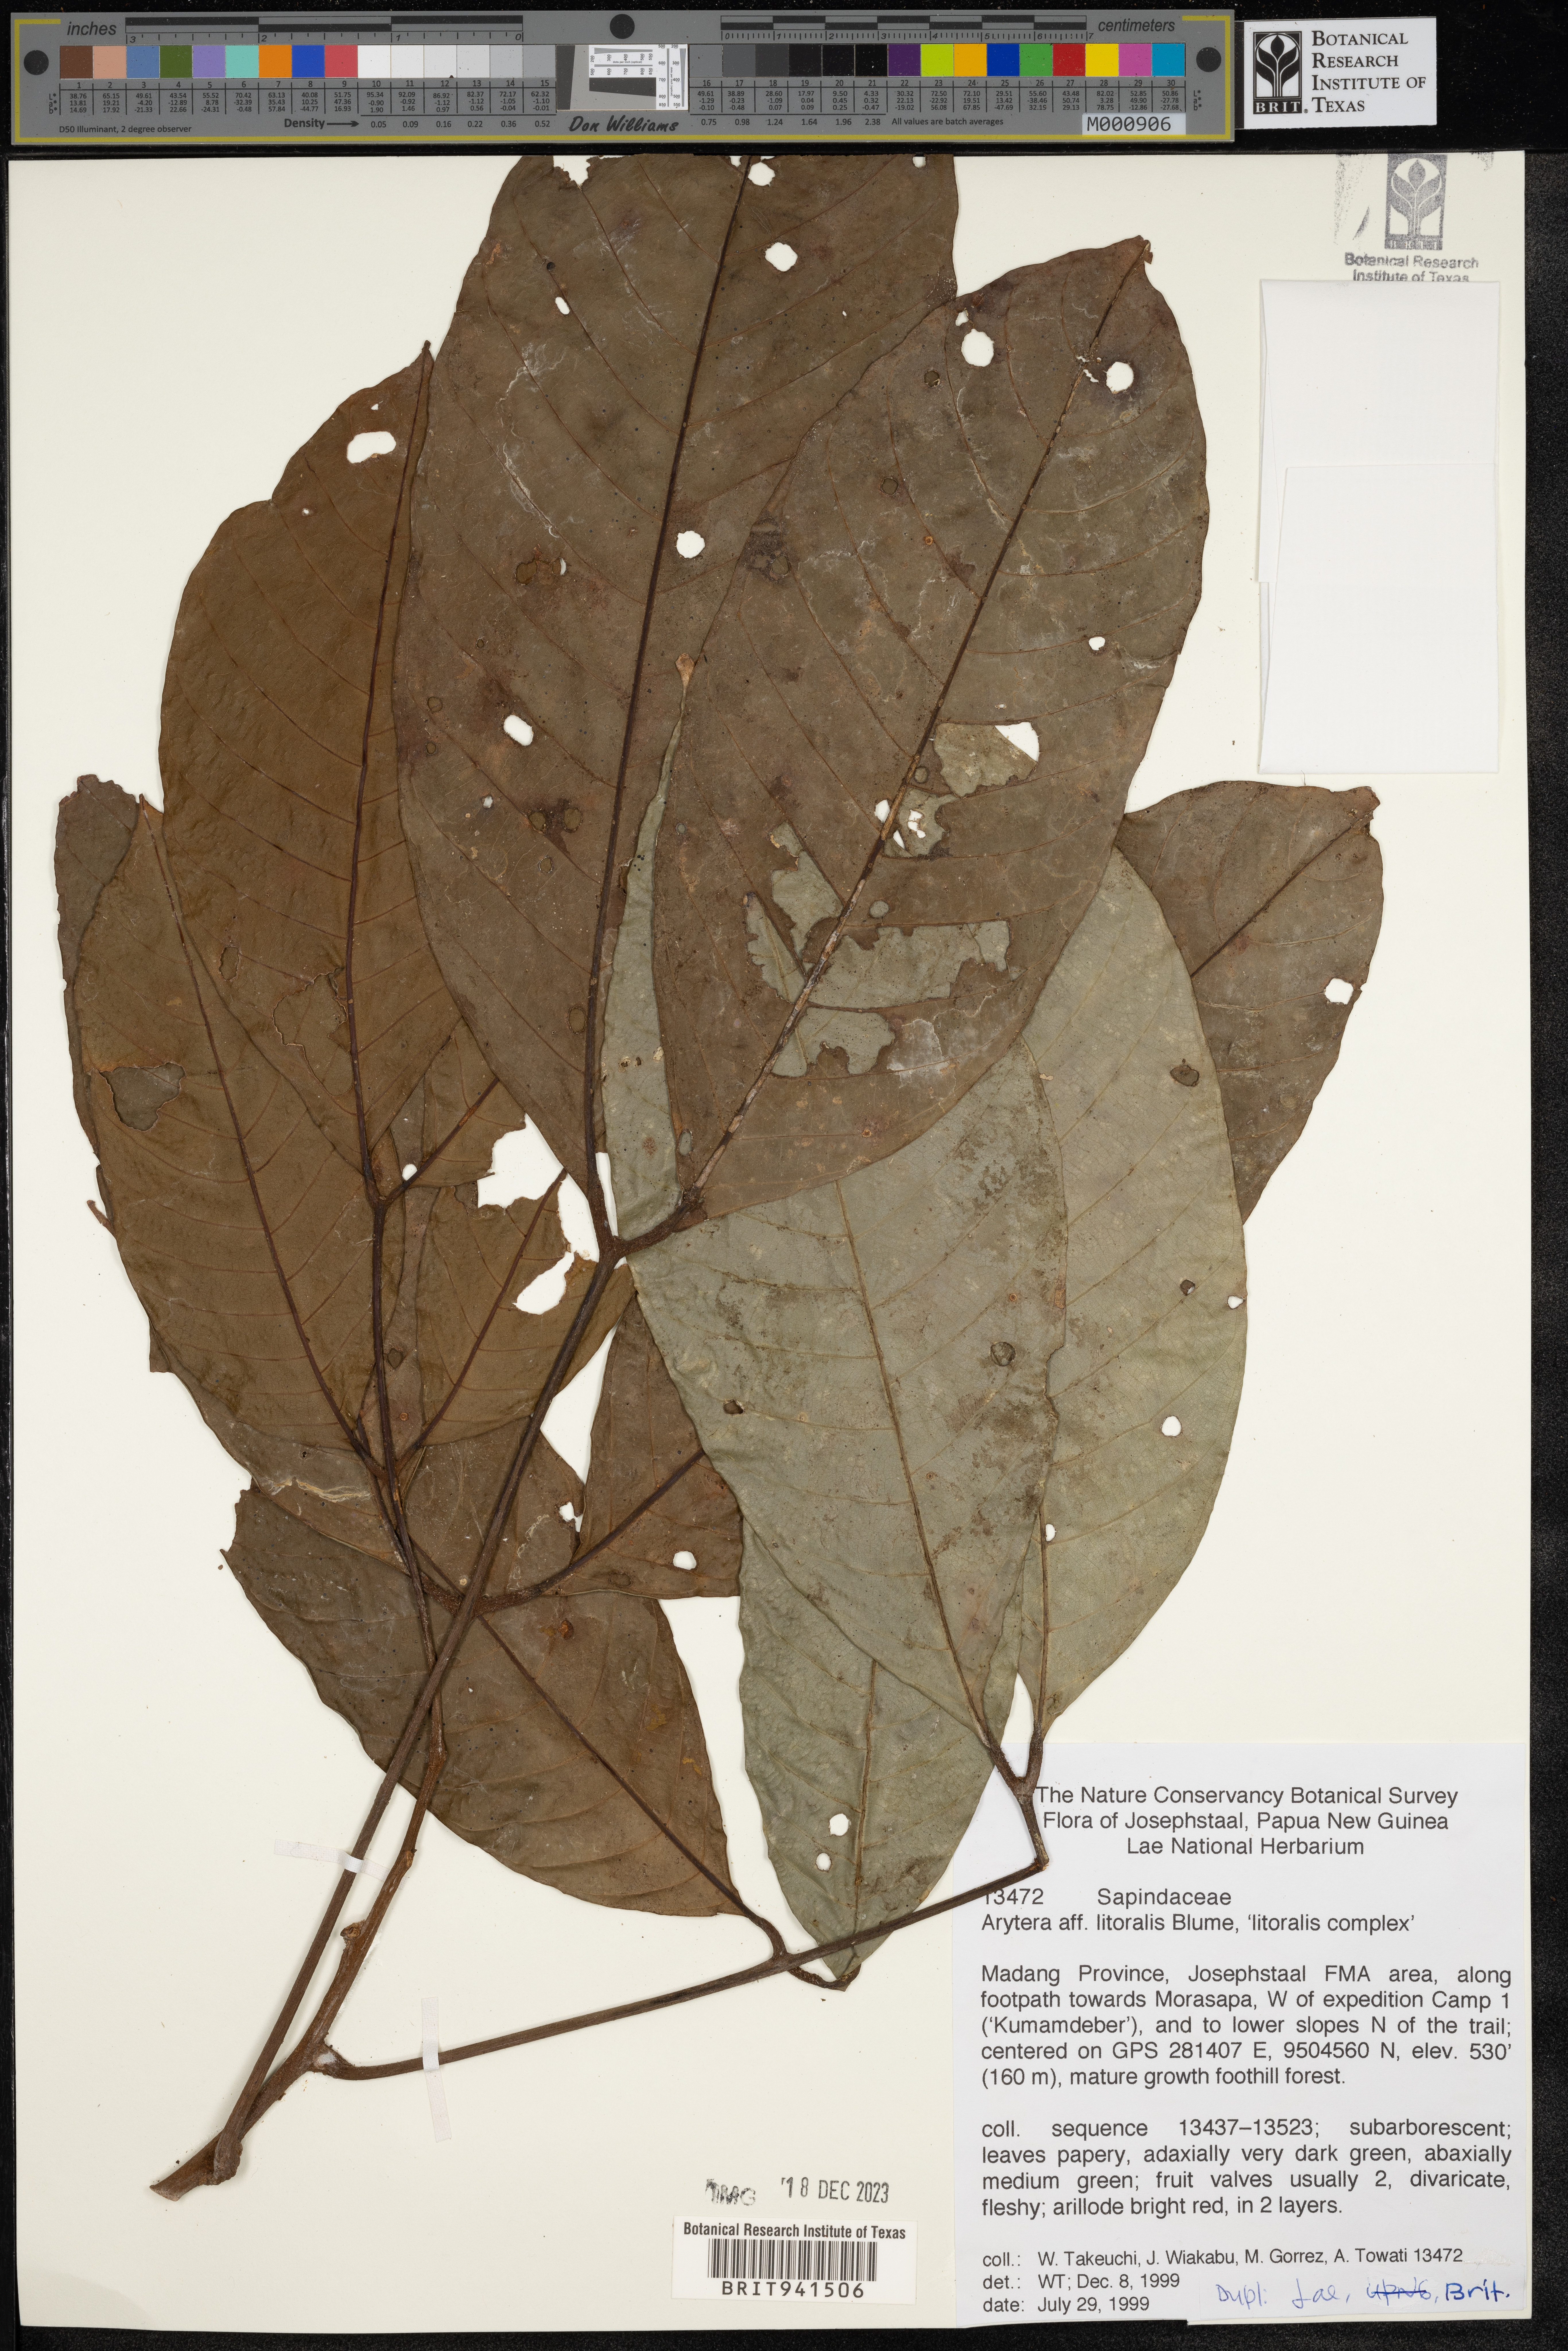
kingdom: Plantae
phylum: Tracheophyta
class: Magnoliopsida
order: Sapindales
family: Sapindaceae
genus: Arytera
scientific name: Arytera
